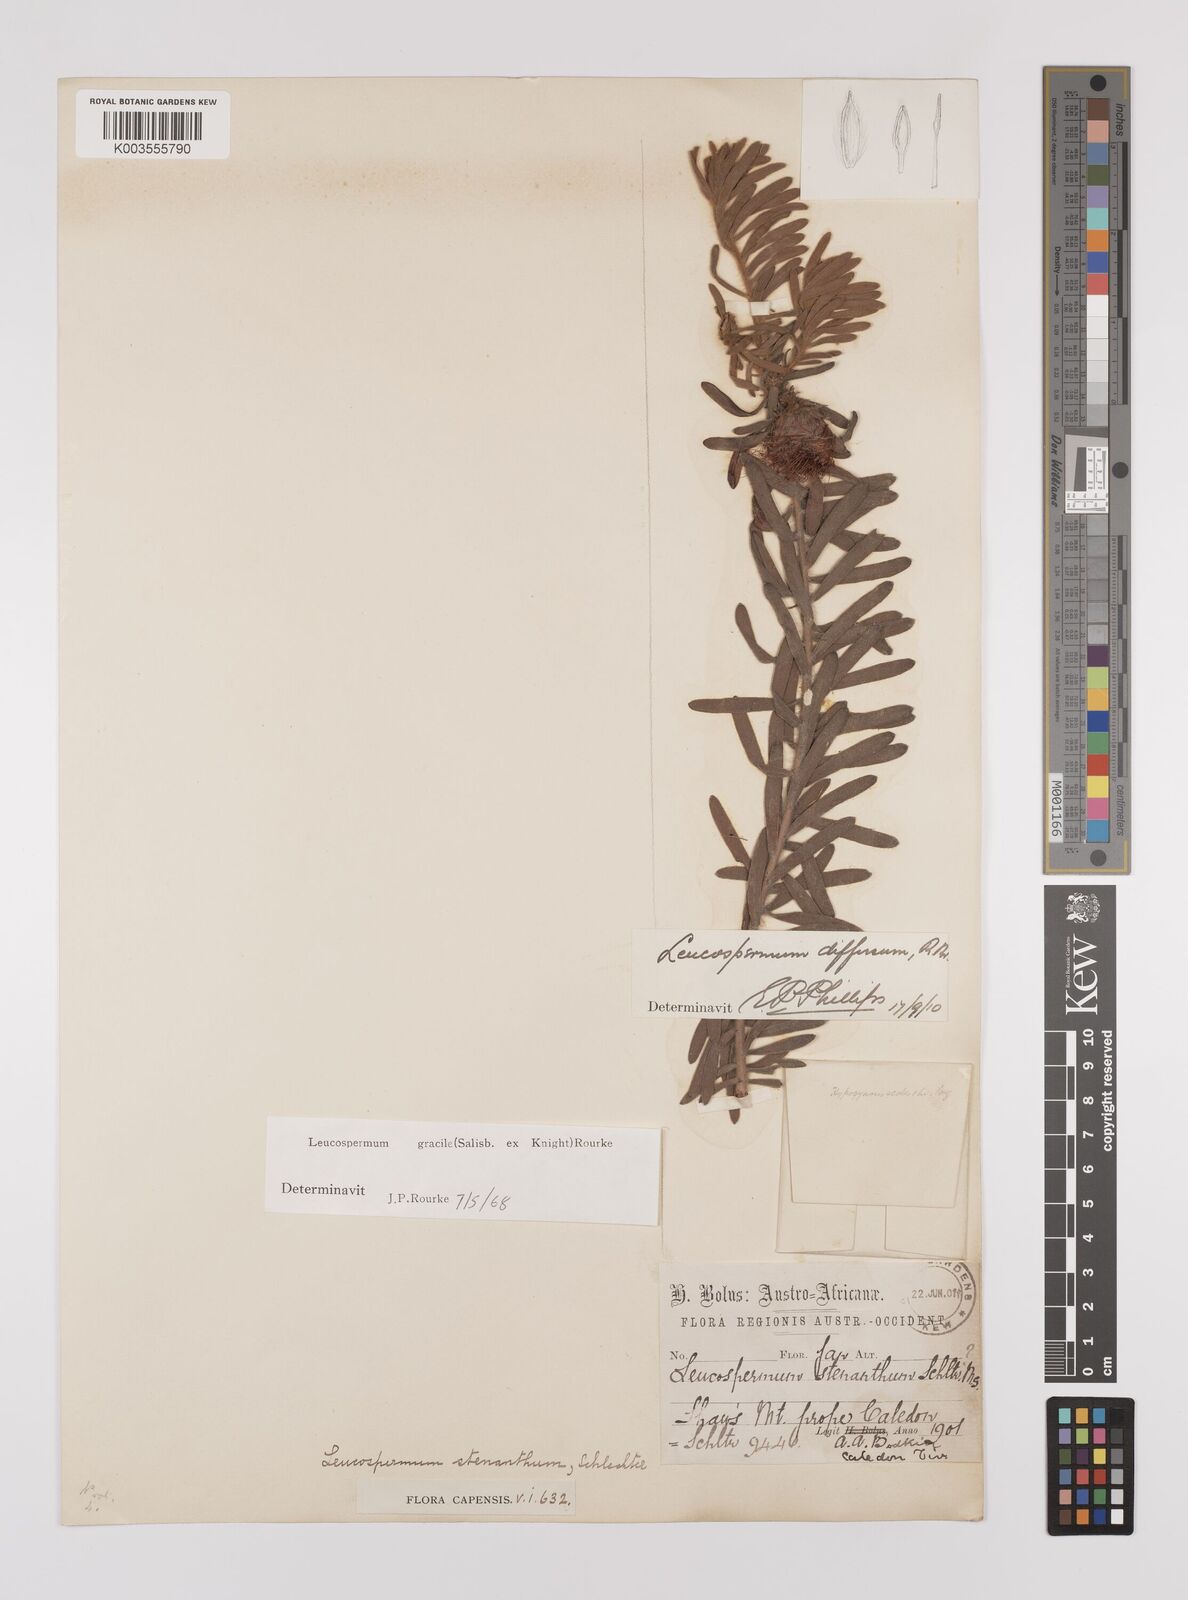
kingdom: Plantae
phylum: Tracheophyta
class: Magnoliopsida
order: Proteales
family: Proteaceae
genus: Leucospermum
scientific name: Leucospermum gracile
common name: Hermanus pincushion
